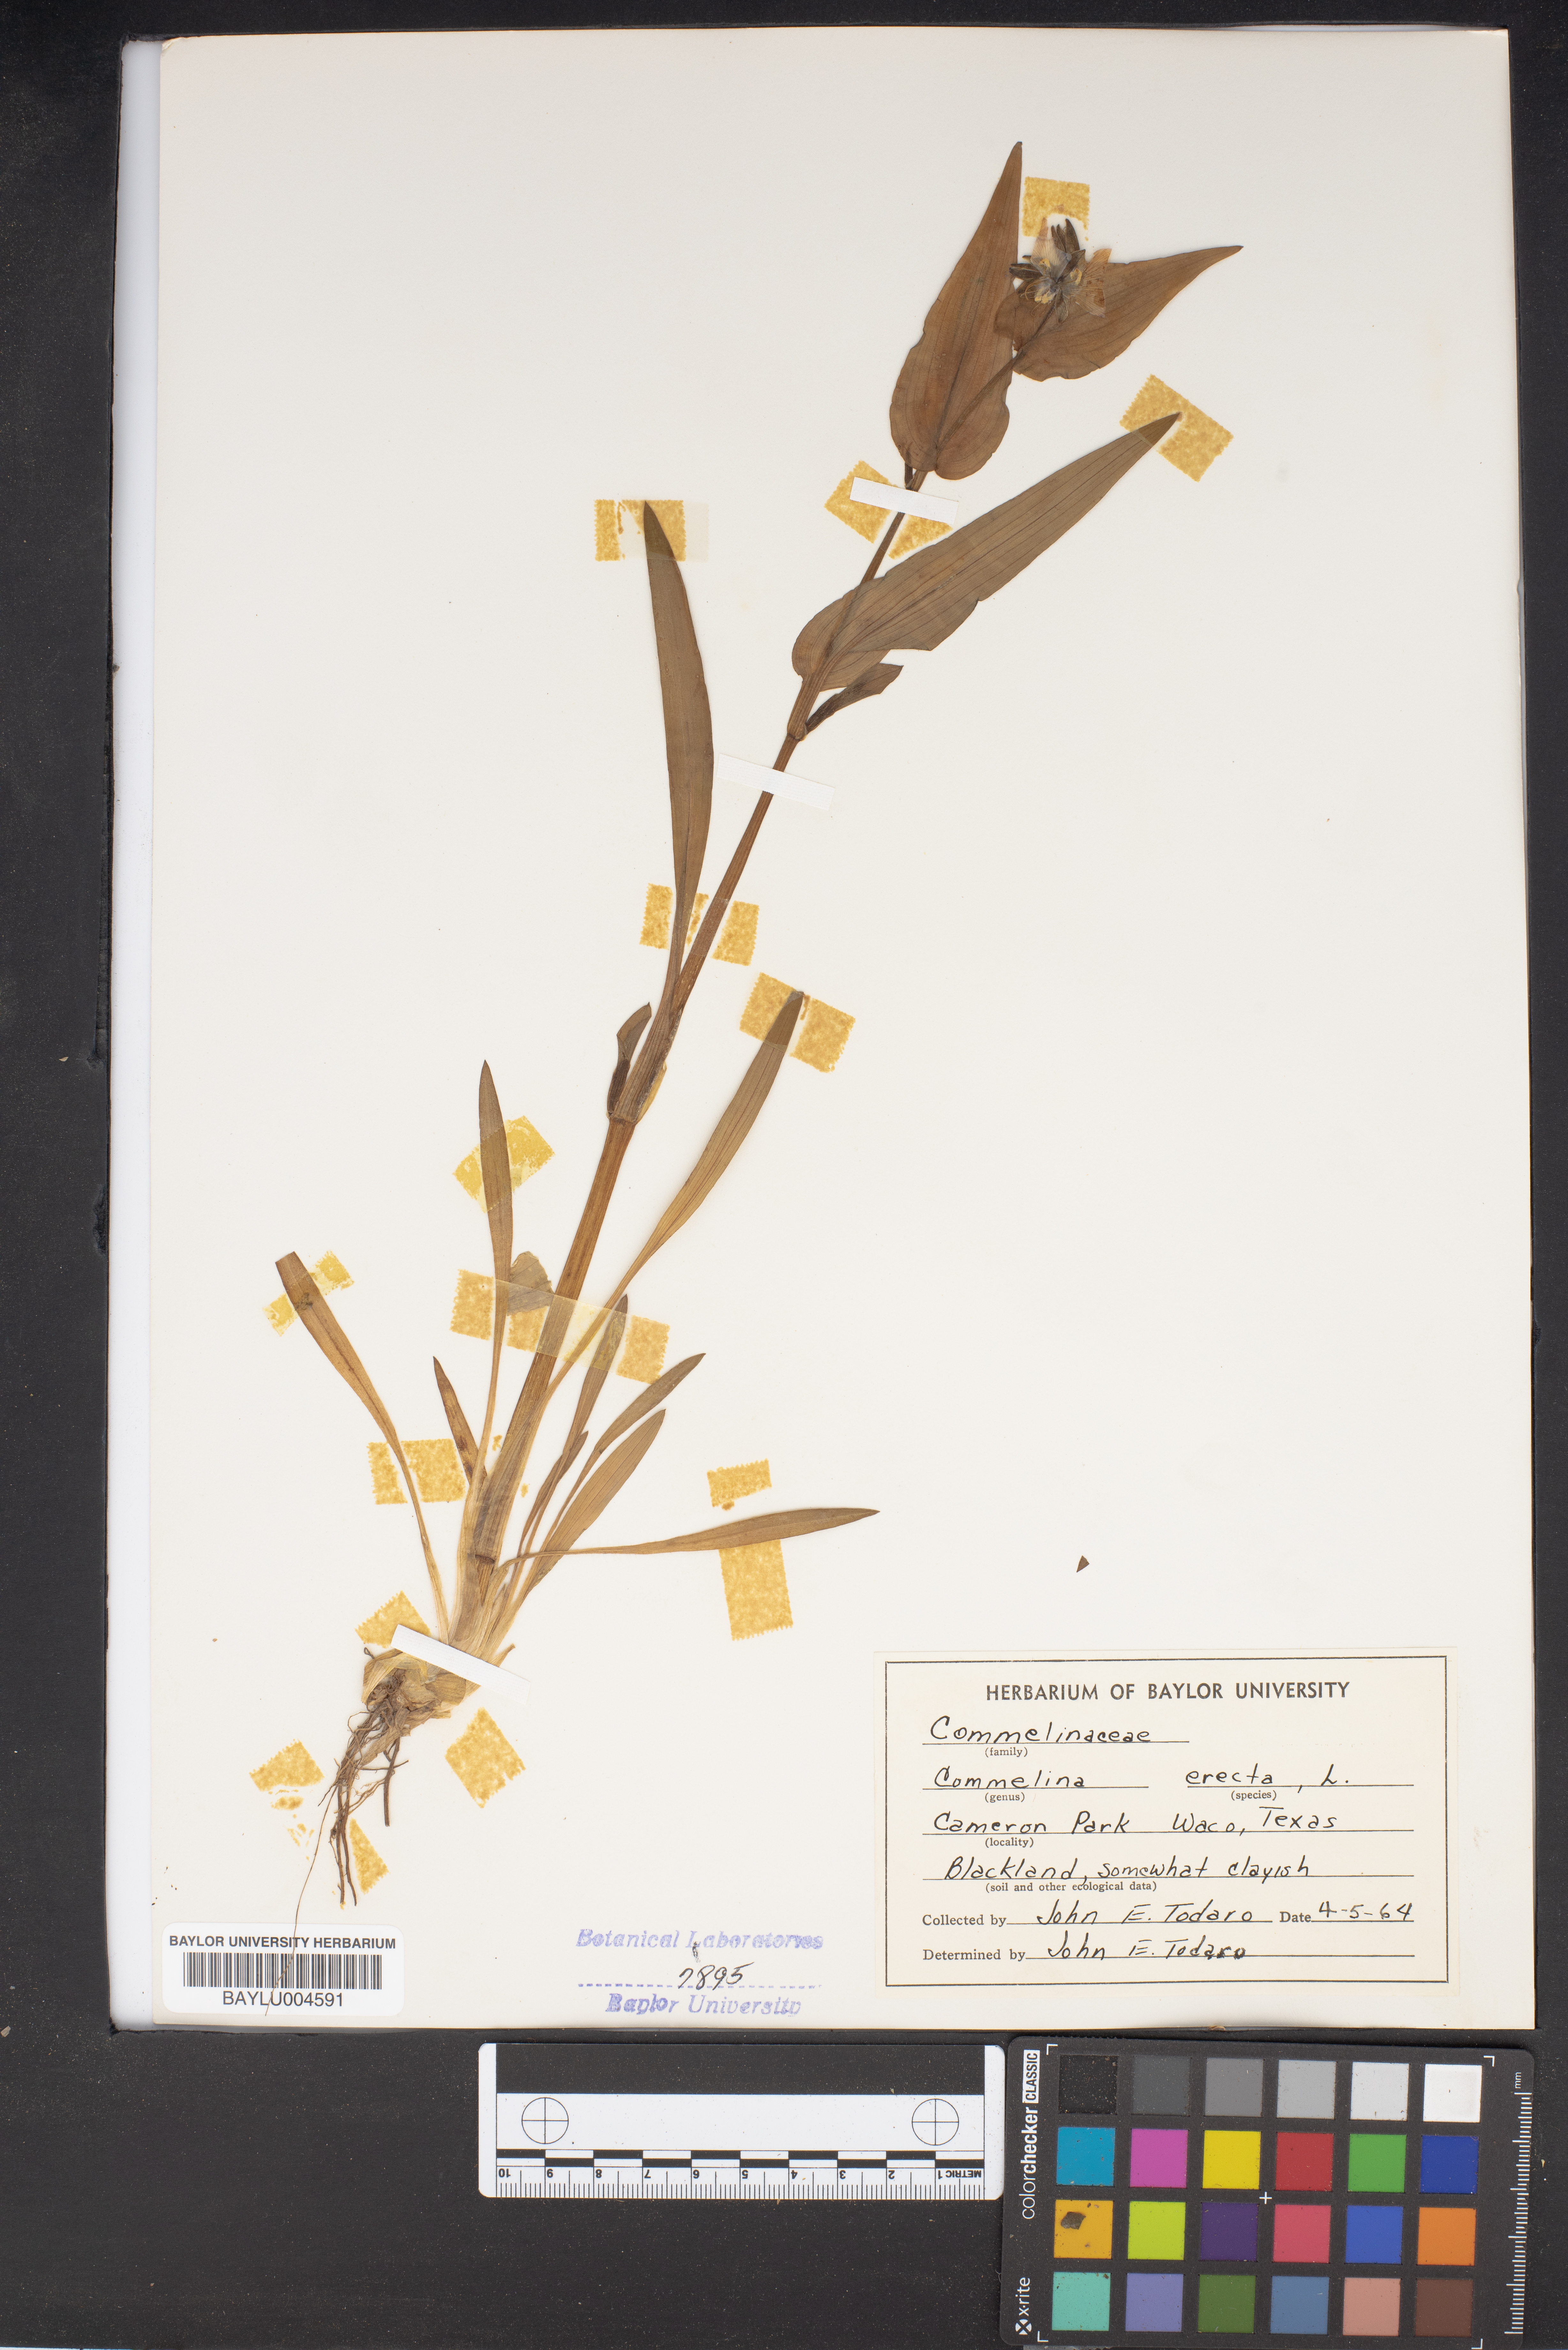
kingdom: Plantae
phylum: Tracheophyta
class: Liliopsida
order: Commelinales
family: Commelinaceae
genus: Commelina
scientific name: Commelina erecta
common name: Blousel blommetjie
